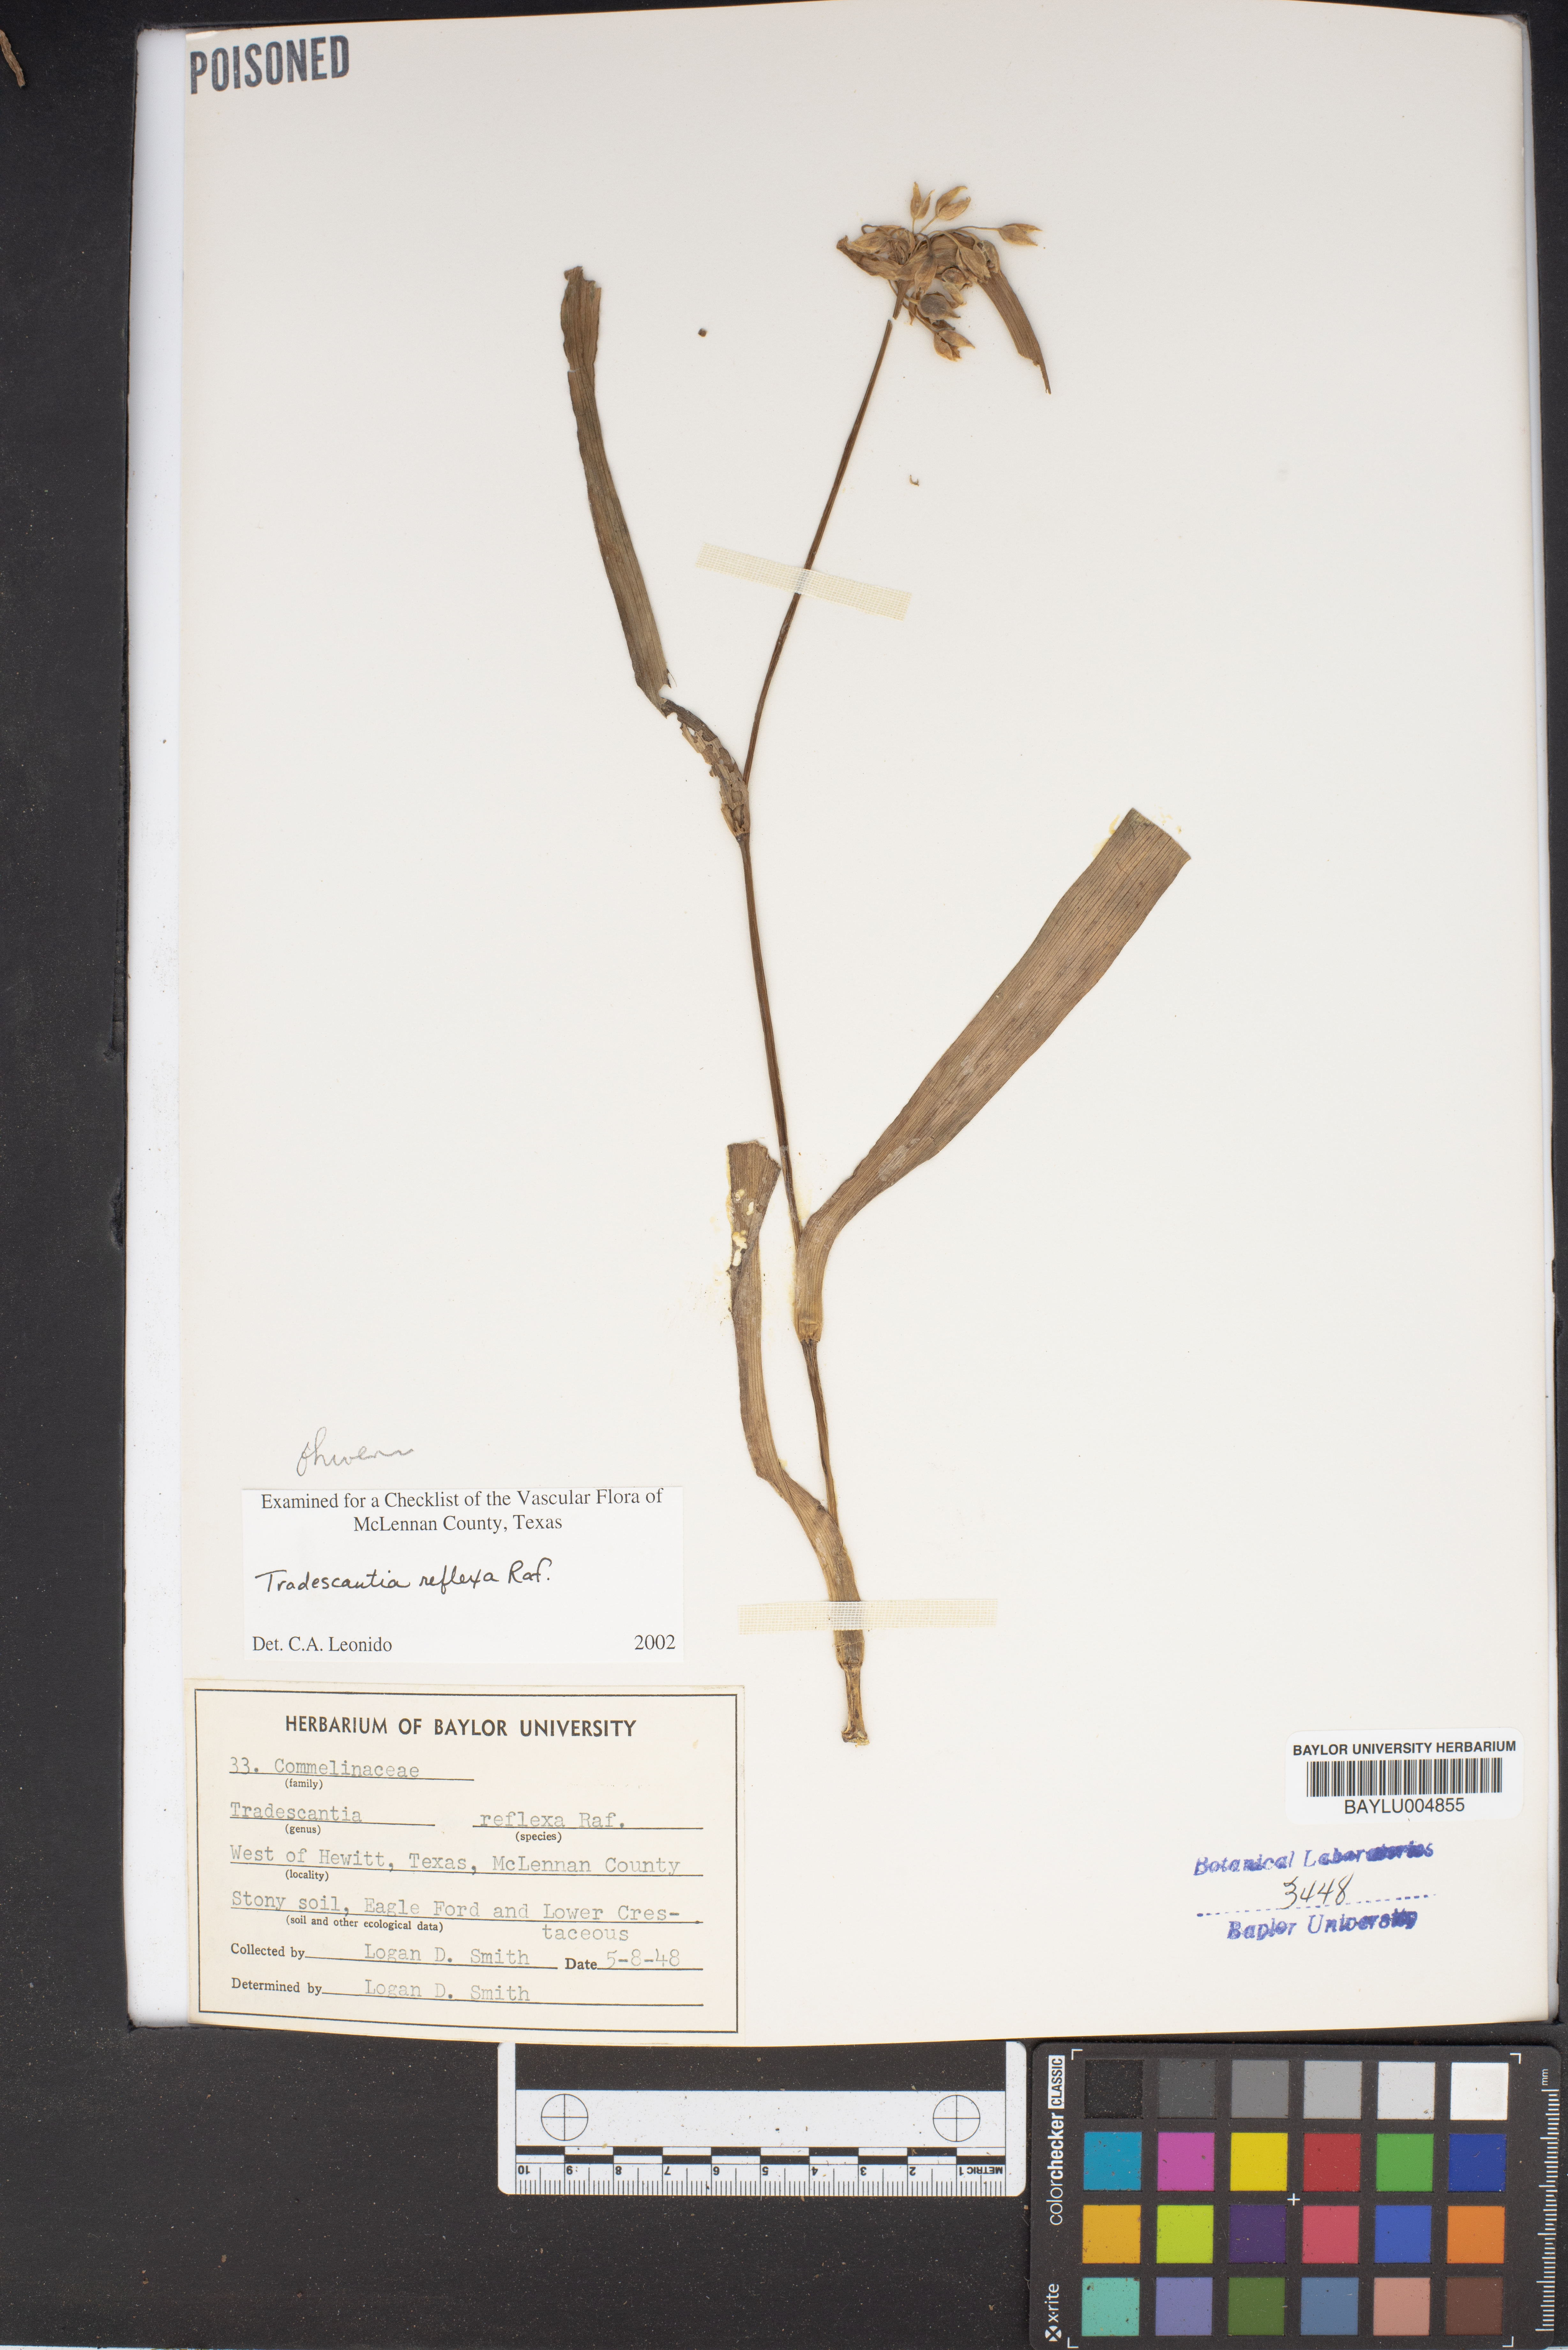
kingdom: Plantae
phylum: Tracheophyta
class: Liliopsida
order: Commelinales
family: Commelinaceae
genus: Tradescantia
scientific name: Tradescantia ohiensis
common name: Ohio spiderwort
